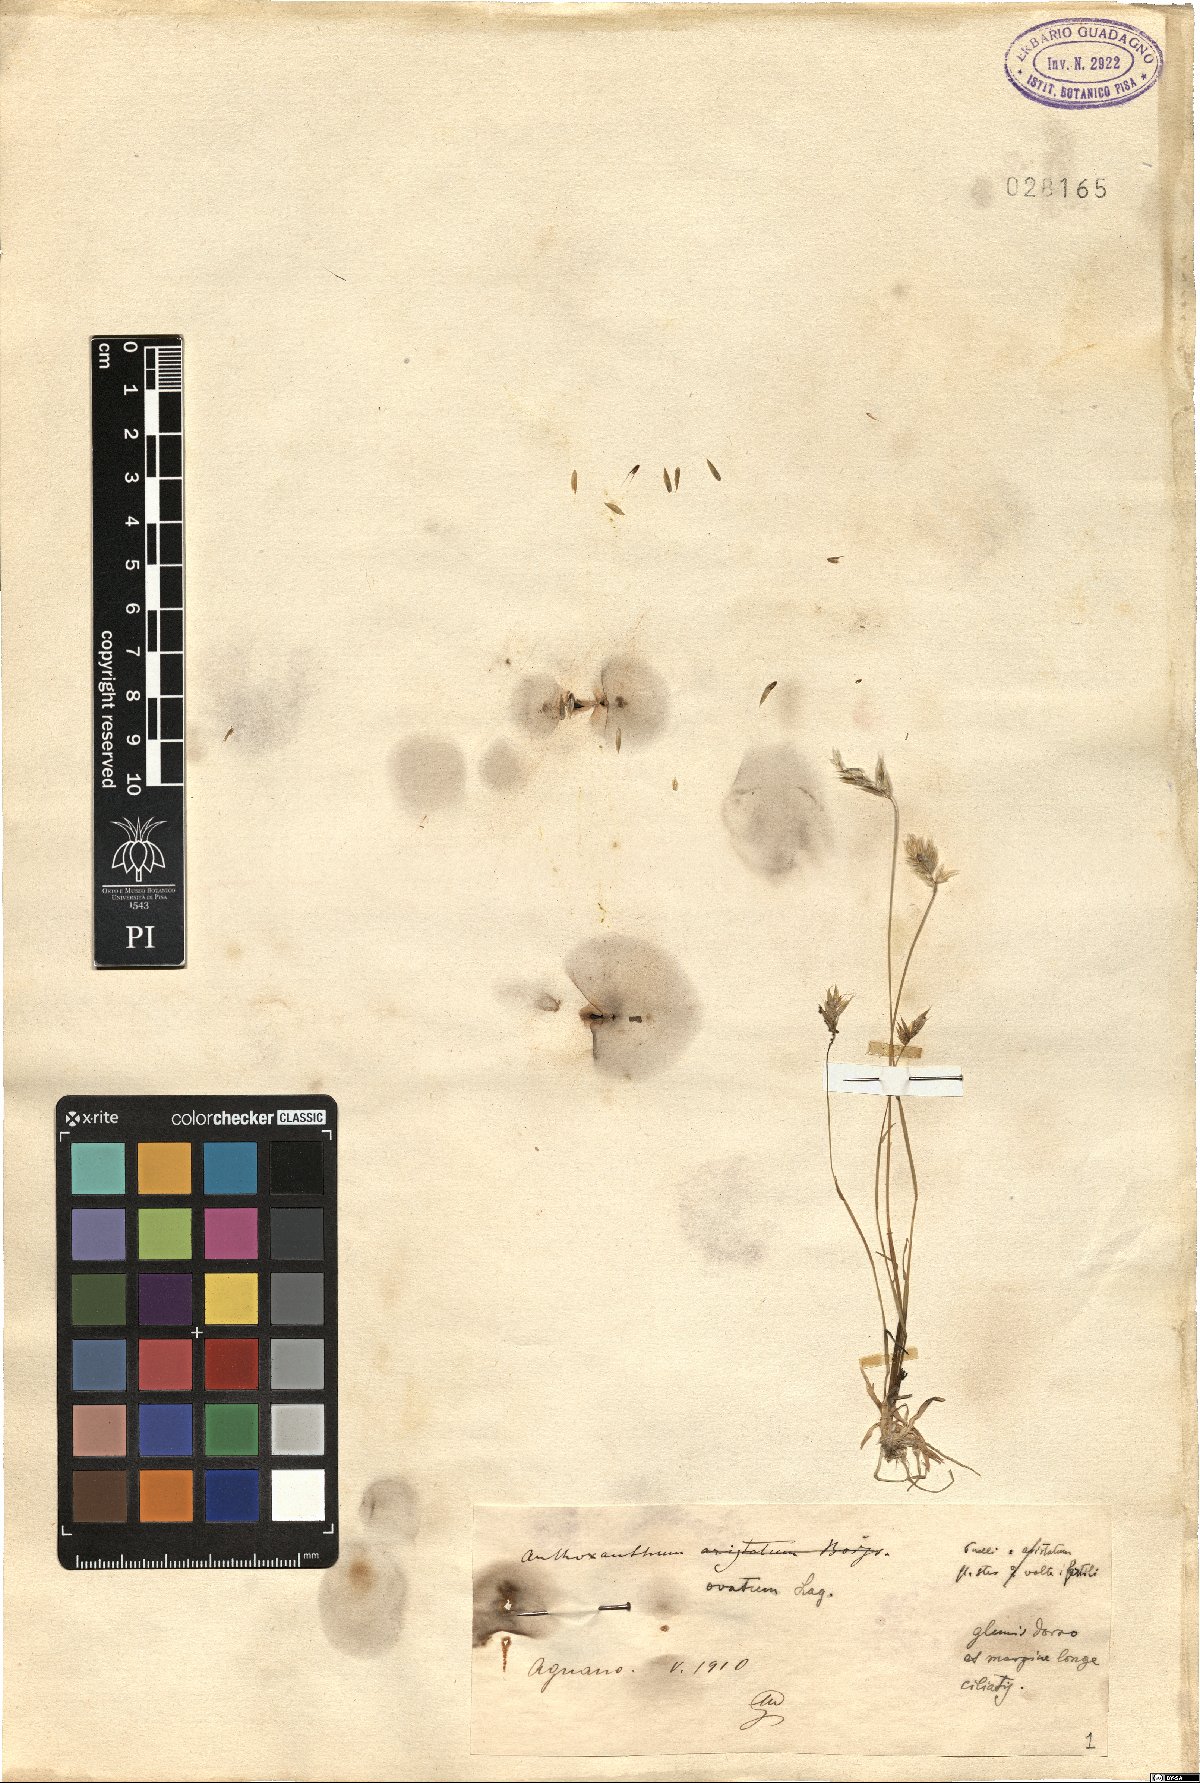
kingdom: Plantae
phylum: Tracheophyta
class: Liliopsida
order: Poales
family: Poaceae
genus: Anthoxanthum
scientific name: Anthoxanthum ovatum
